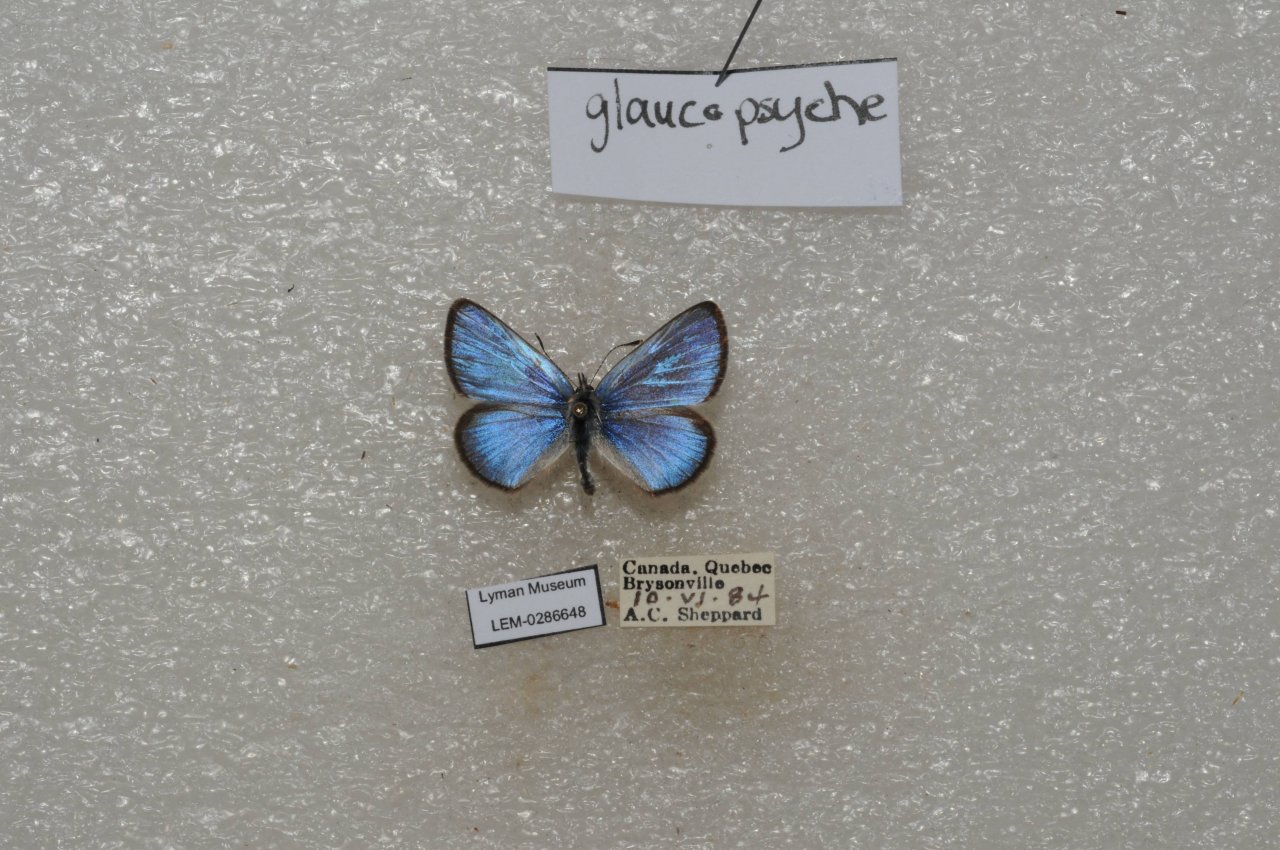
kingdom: Animalia
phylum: Arthropoda
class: Insecta
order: Lepidoptera
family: Lycaenidae
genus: Glaucopsyche
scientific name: Glaucopsyche lygdamus
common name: Silvery Blue
